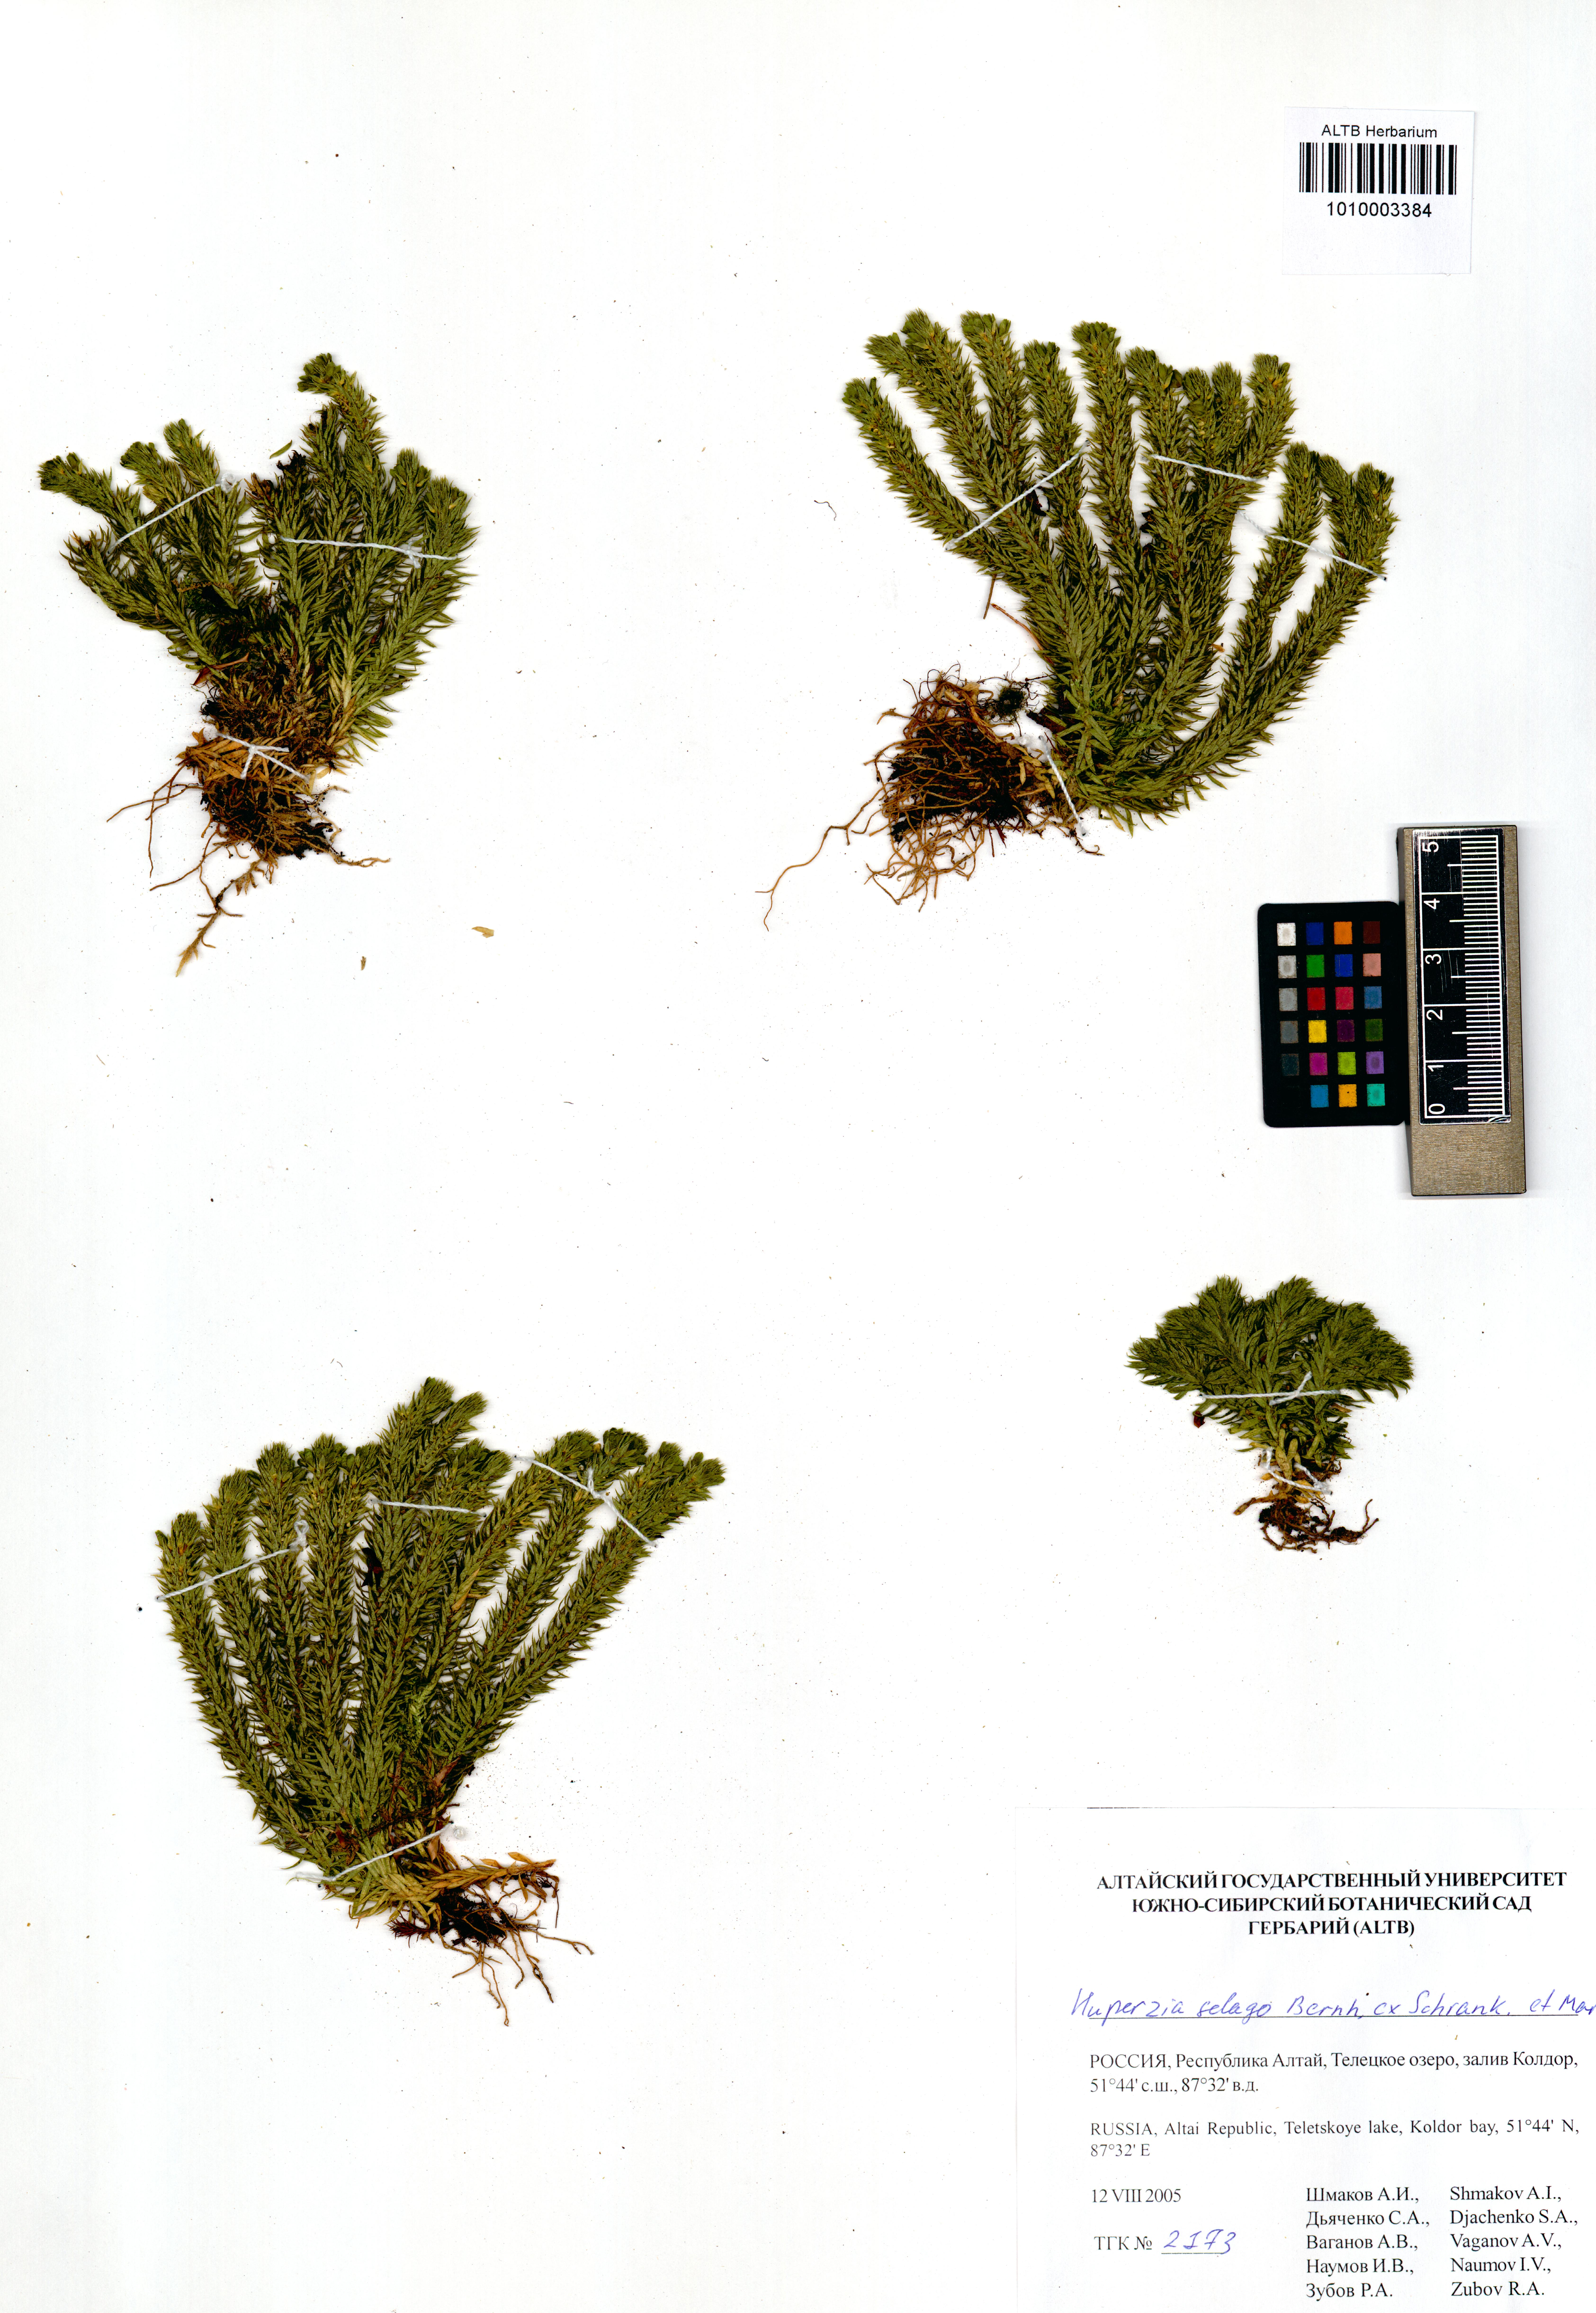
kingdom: Plantae
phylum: Tracheophyta
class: Lycopodiopsida
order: Lycopodiales
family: Lycopodiaceae
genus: Huperzia
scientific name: Huperzia selago
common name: Northern firmoss
